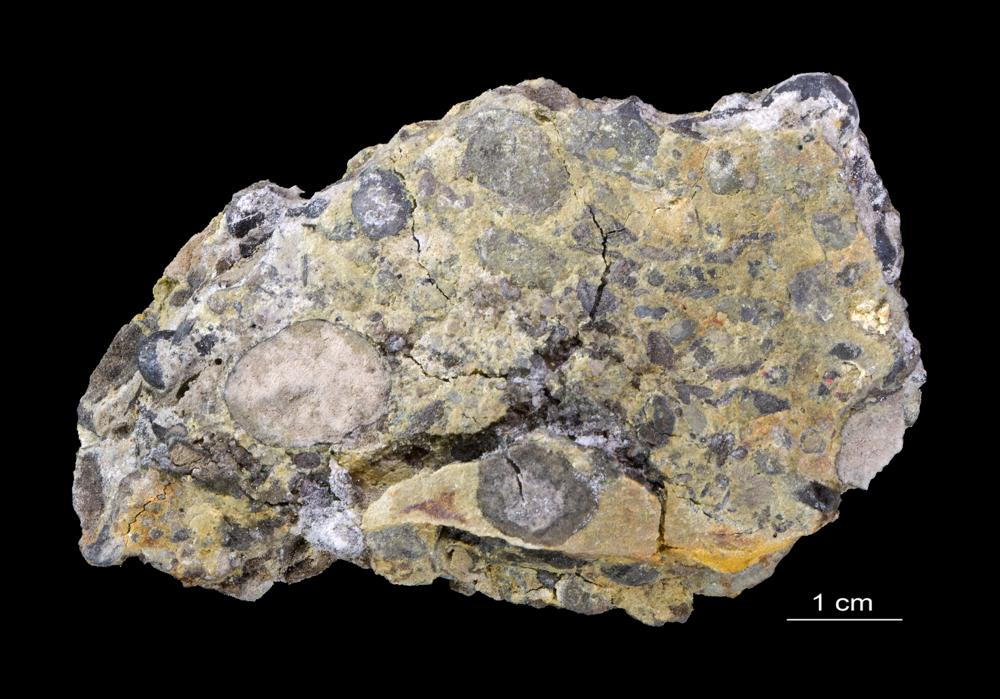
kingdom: Animalia
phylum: Brachiopoda
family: Paterinidae
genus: Mickwitzia
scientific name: Mickwitzia
